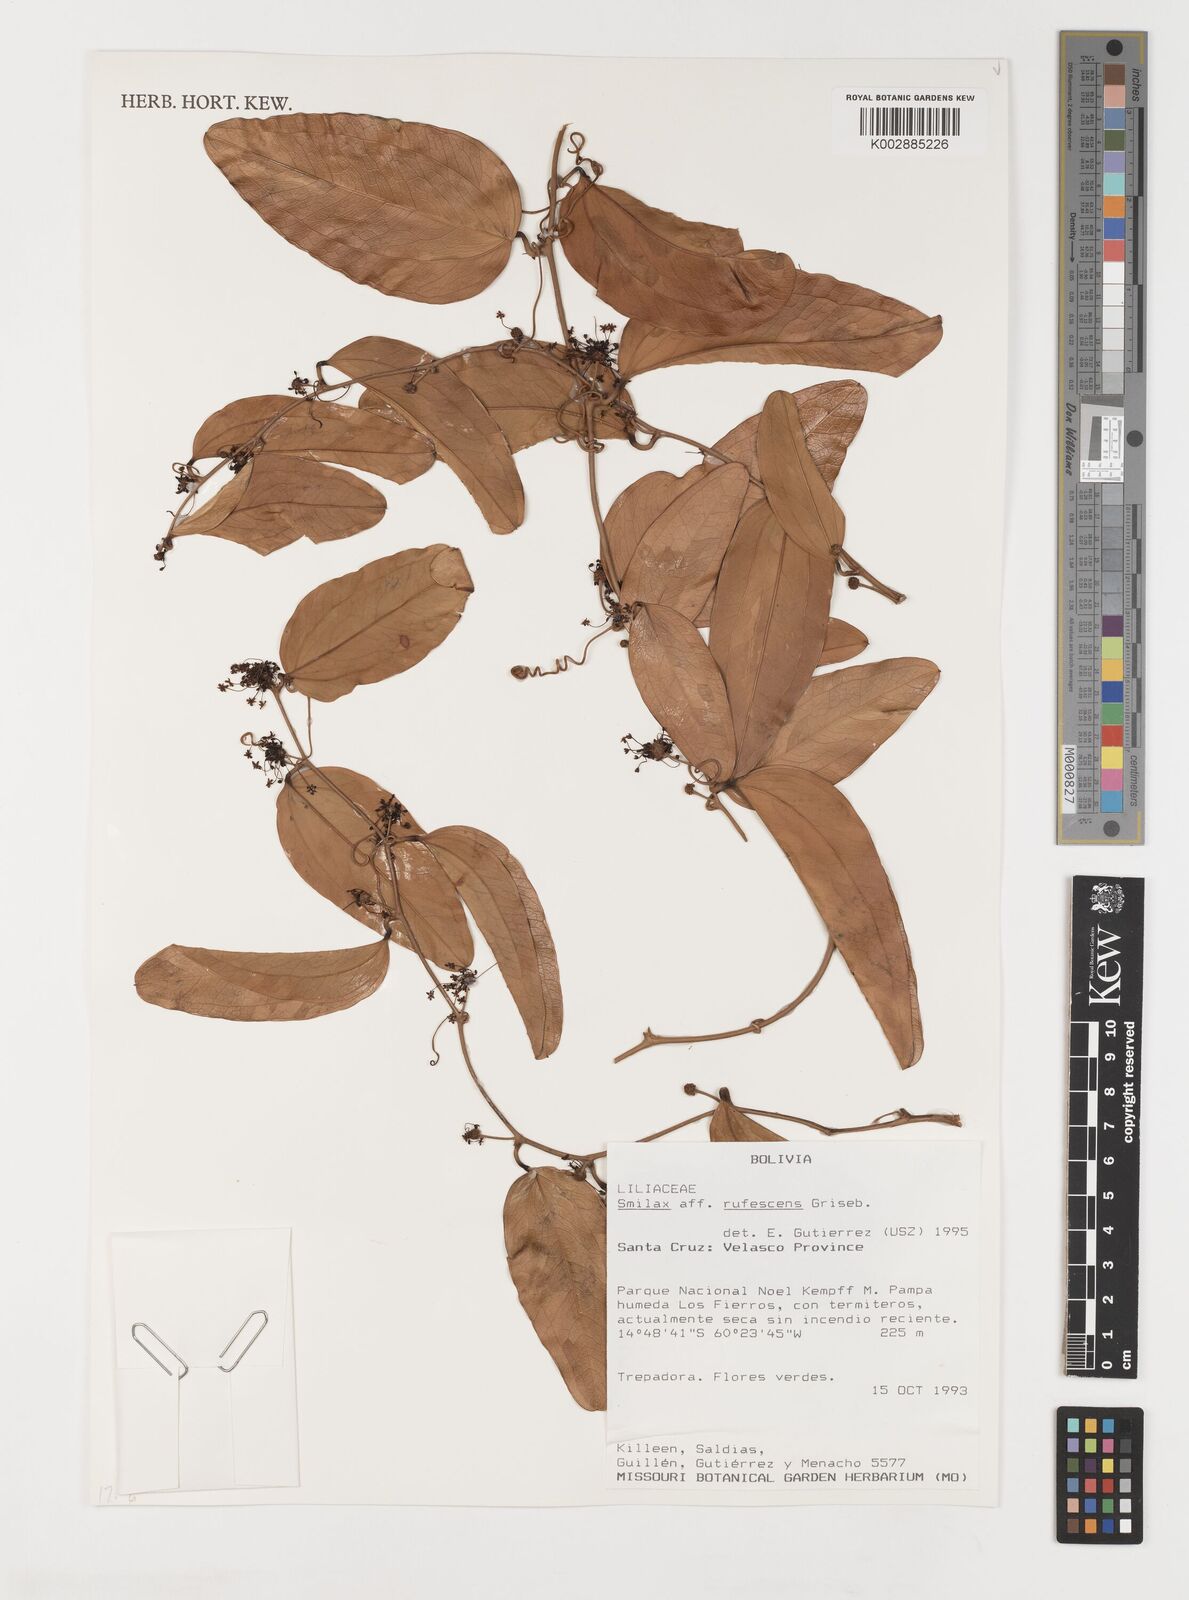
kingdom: Plantae
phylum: Tracheophyta
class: Liliopsida
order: Liliales
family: Smilacaceae
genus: Smilax
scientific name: Smilax rufescens
